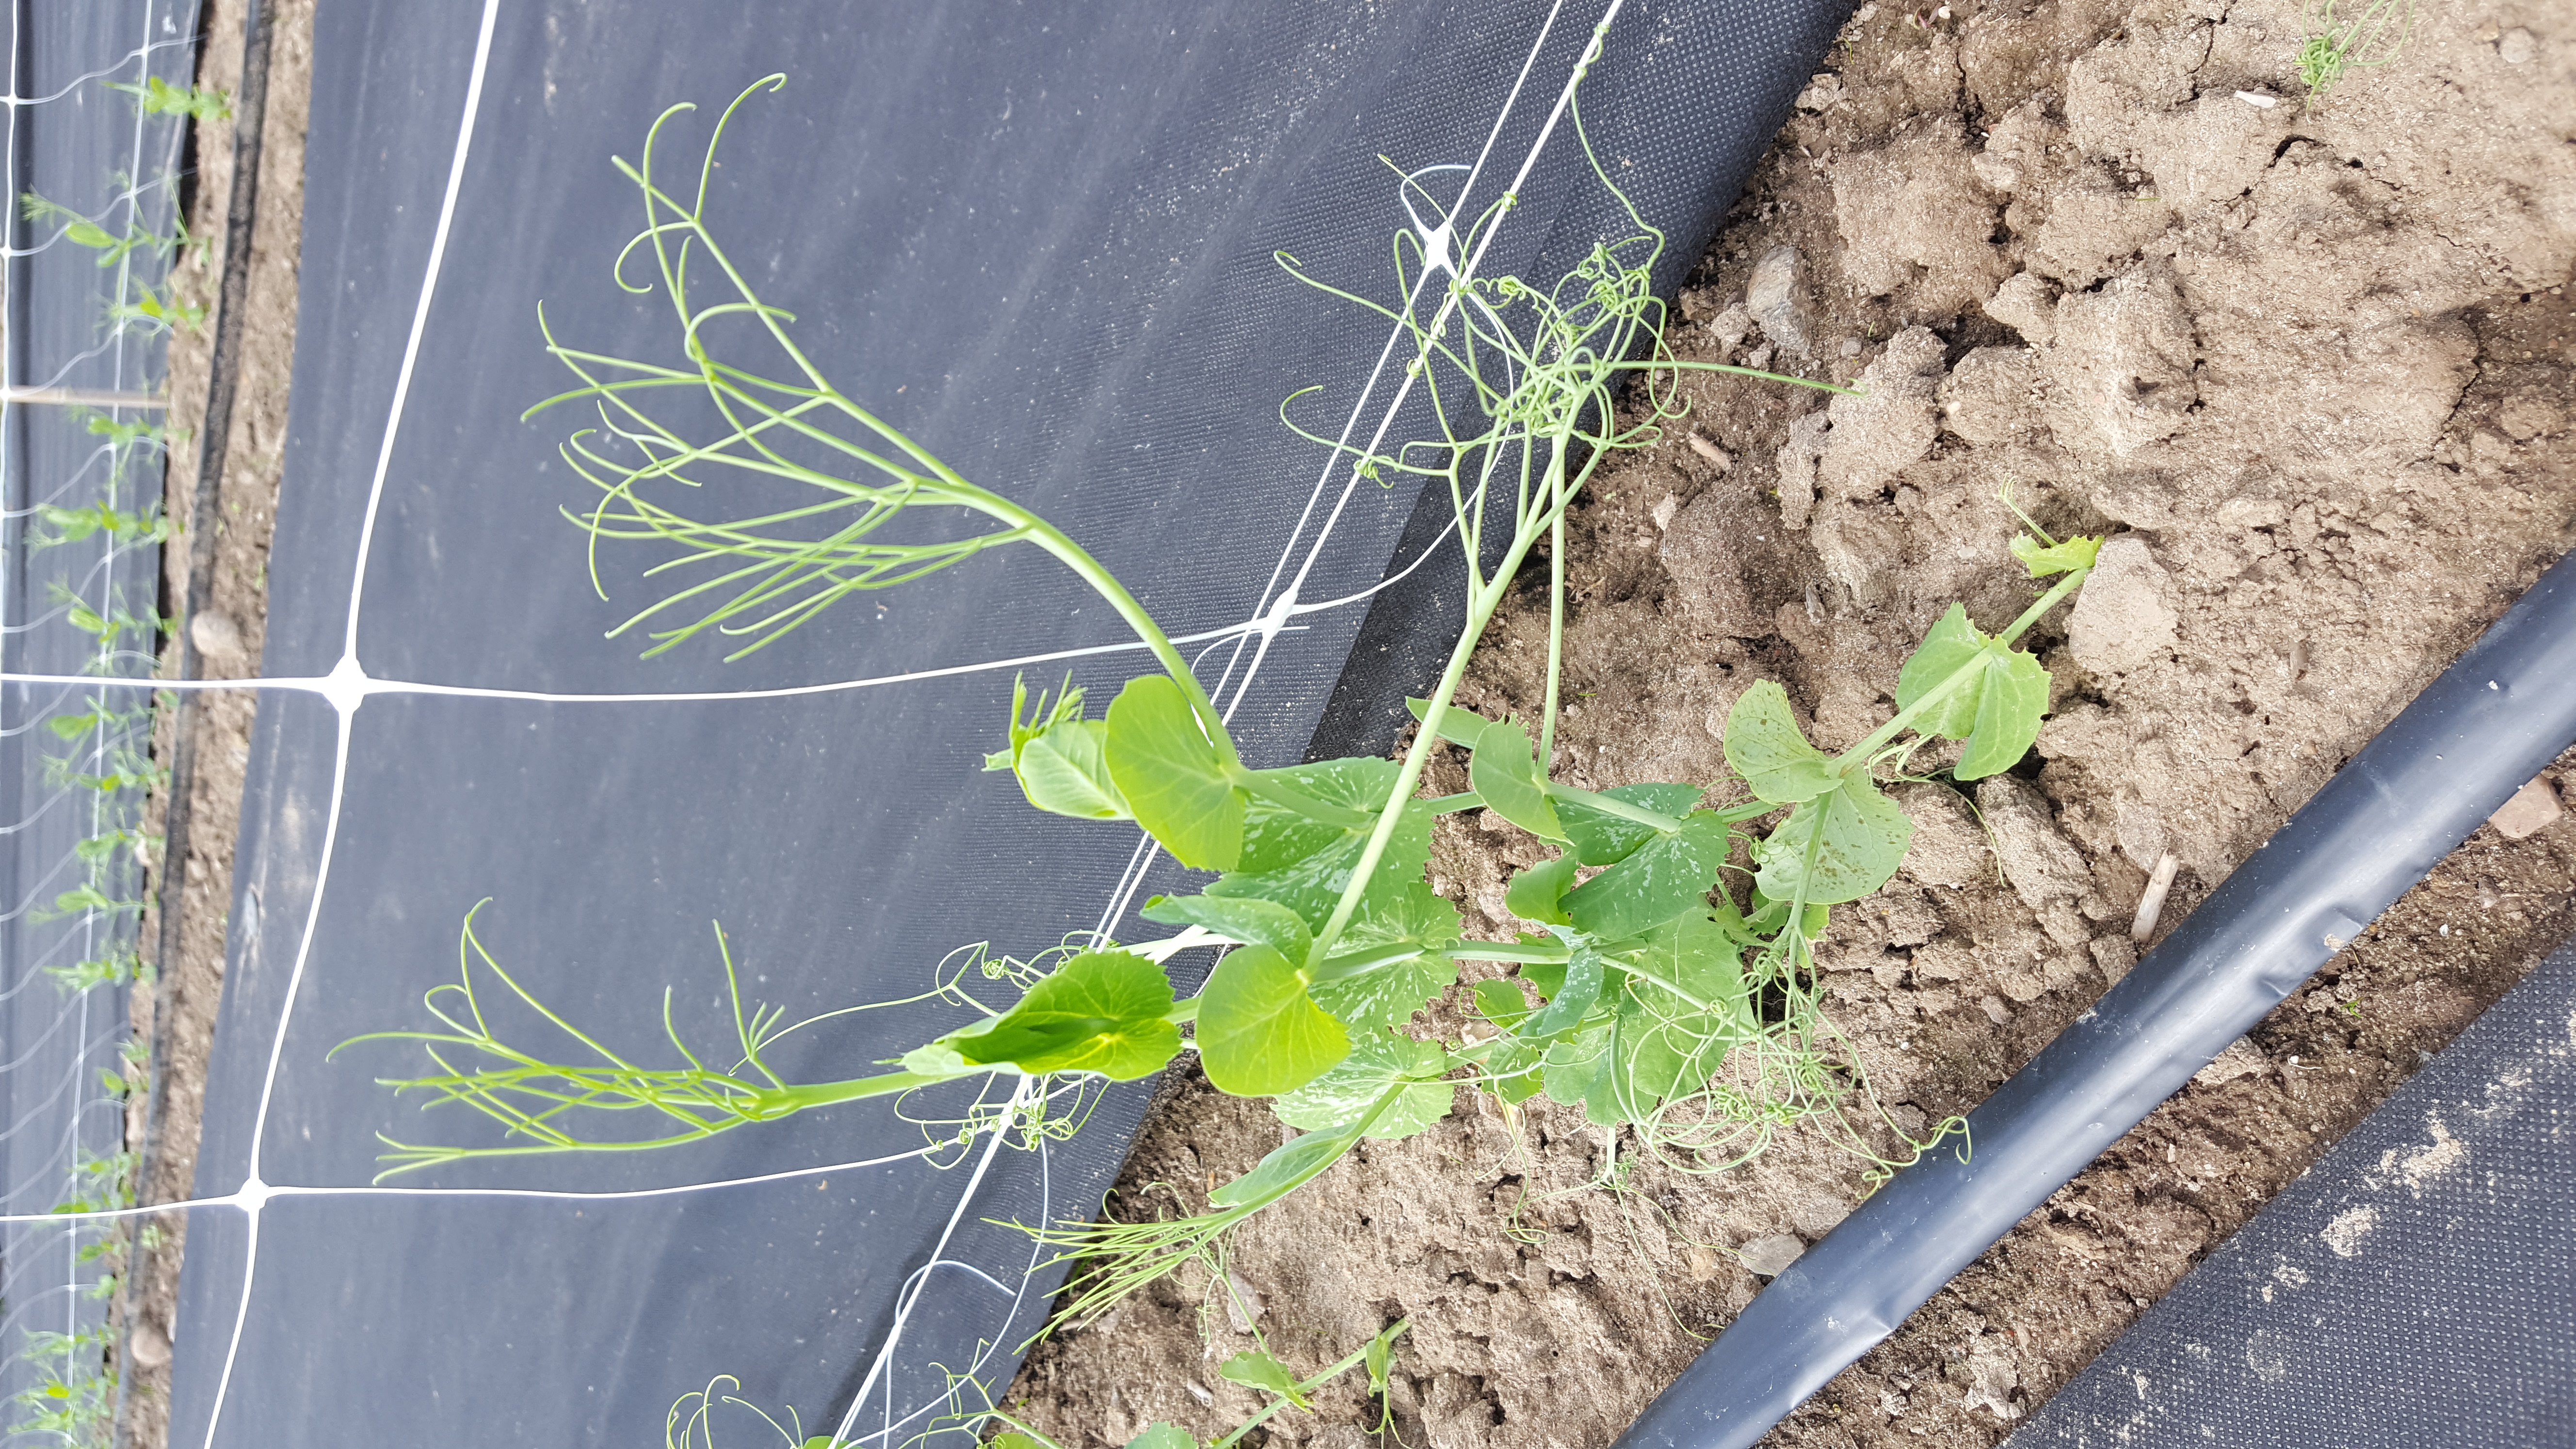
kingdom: Plantae
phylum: Tracheophyta
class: Magnoliopsida
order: Fabales
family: Fabaceae
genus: Lathyrus
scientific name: Lathyrus oleraceus
